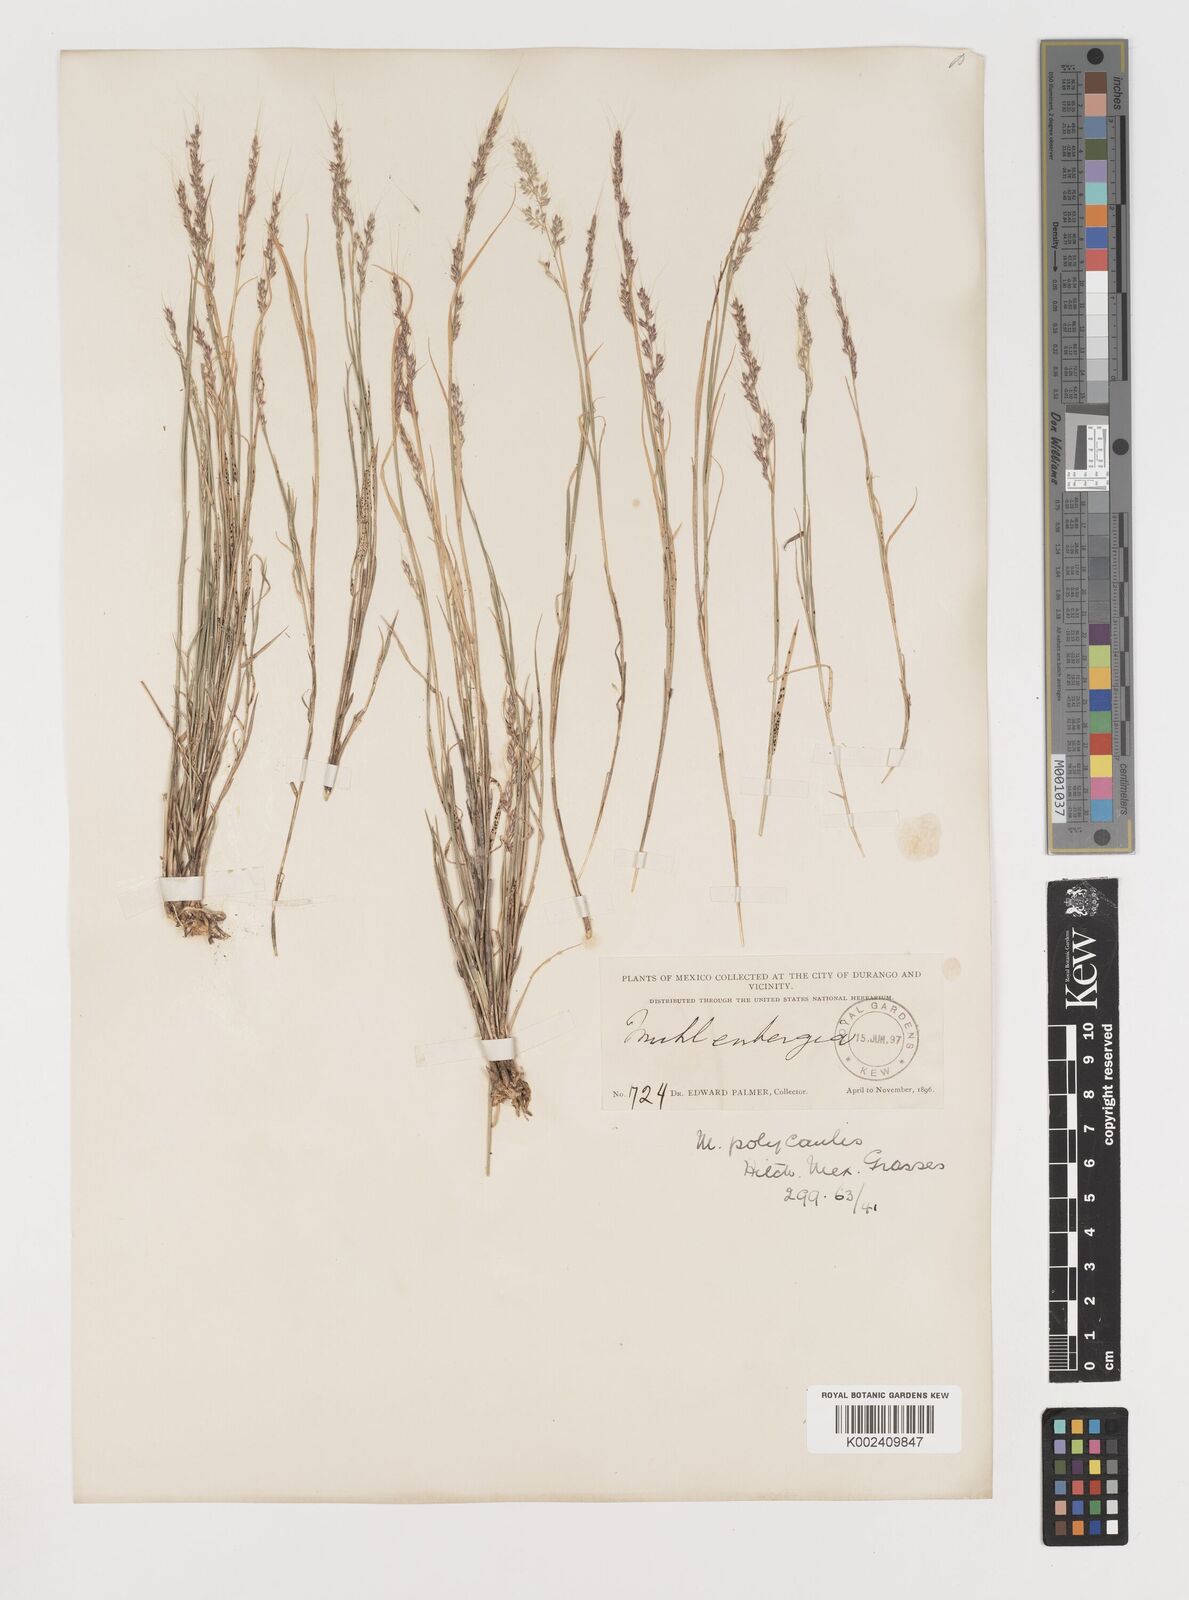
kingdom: Plantae
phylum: Tracheophyta
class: Liliopsida
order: Poales
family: Poaceae
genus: Muhlenbergia
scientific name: Muhlenbergia polycaulis
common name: Cliff muhly
